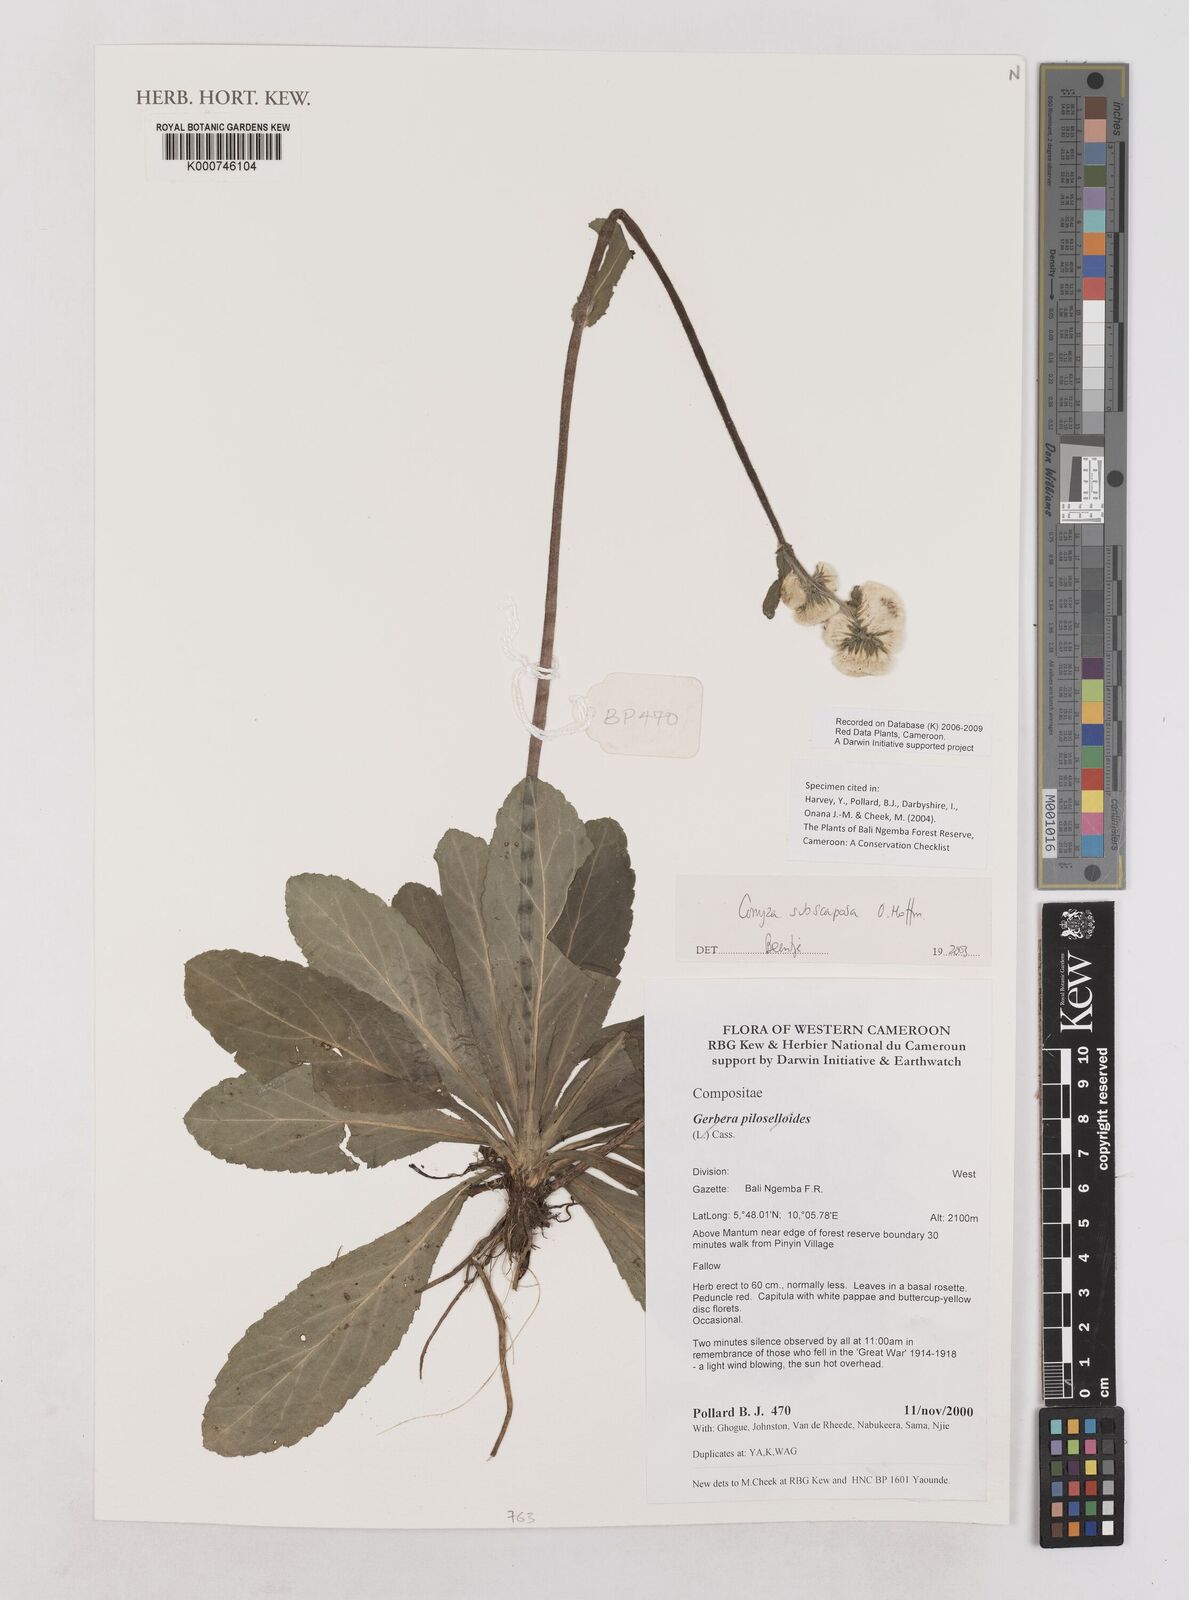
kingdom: Plantae
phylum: Tracheophyta
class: Magnoliopsida
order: Asterales
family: Asteraceae
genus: Eschenbachia
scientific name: Eschenbachia subscaposa
